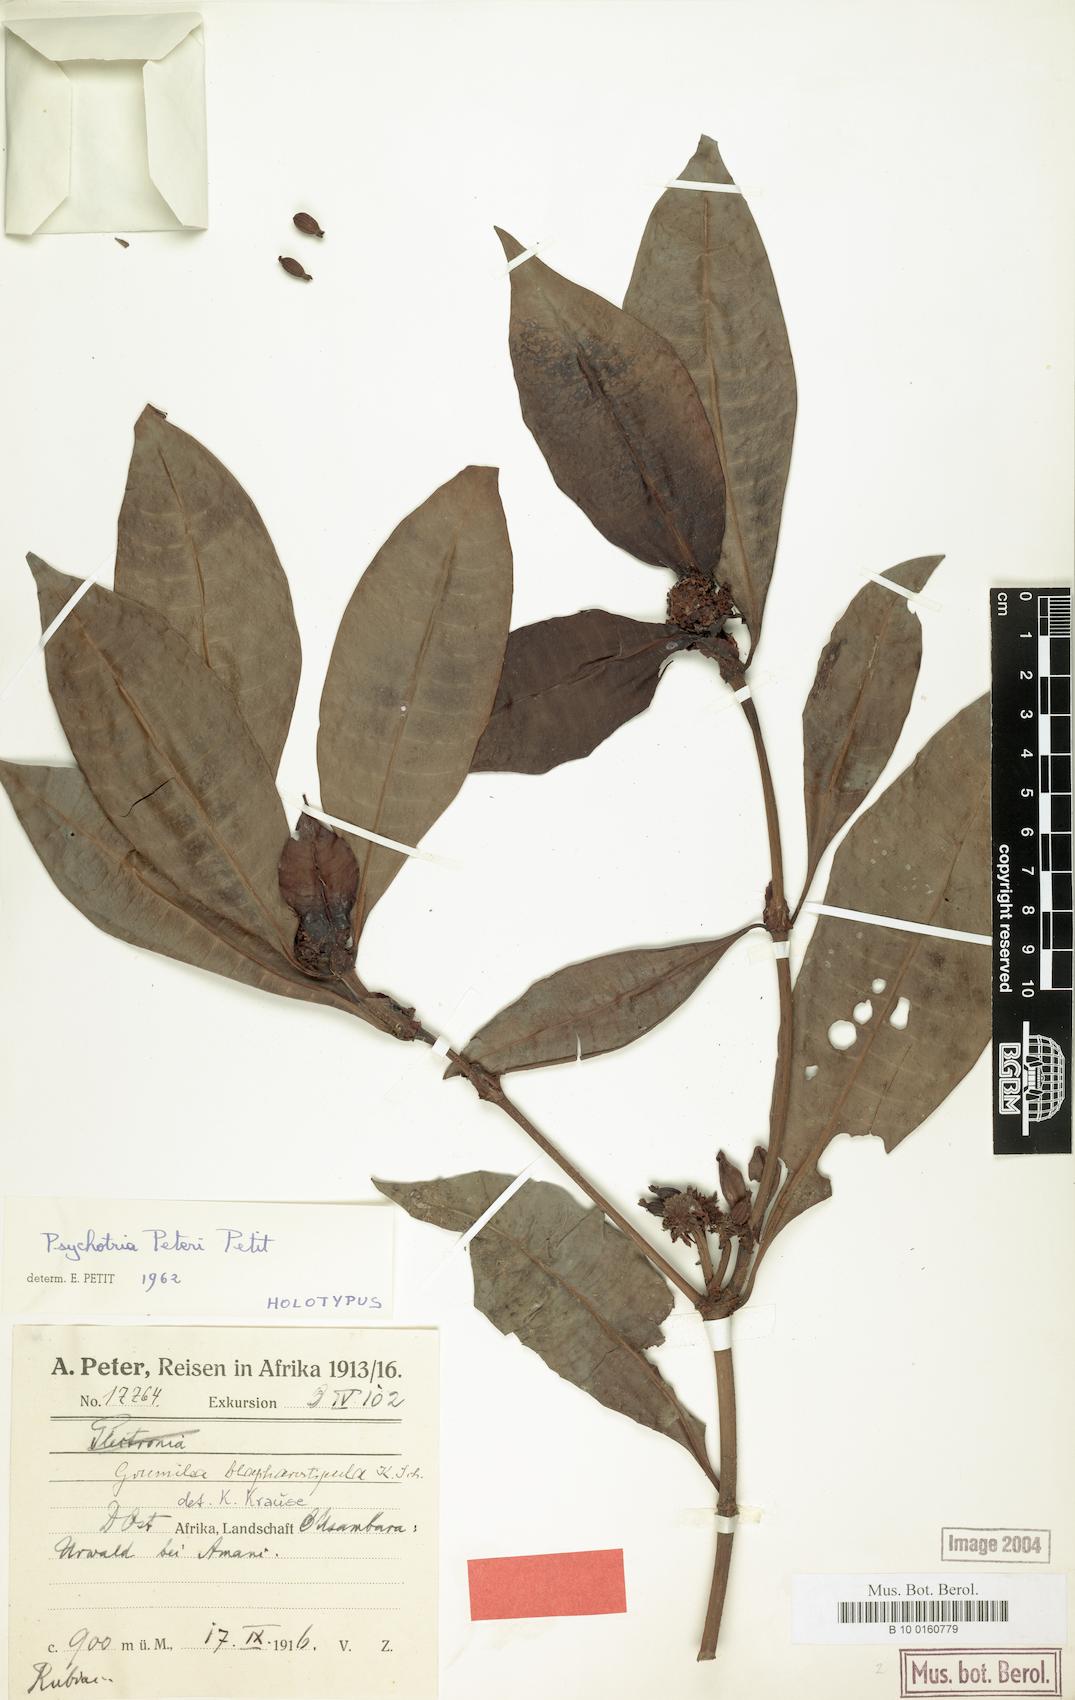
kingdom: Plantae
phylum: Tracheophyta
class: Magnoliopsida
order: Gentianales
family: Rubiaceae
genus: Psychotria
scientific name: Psychotria peteri
